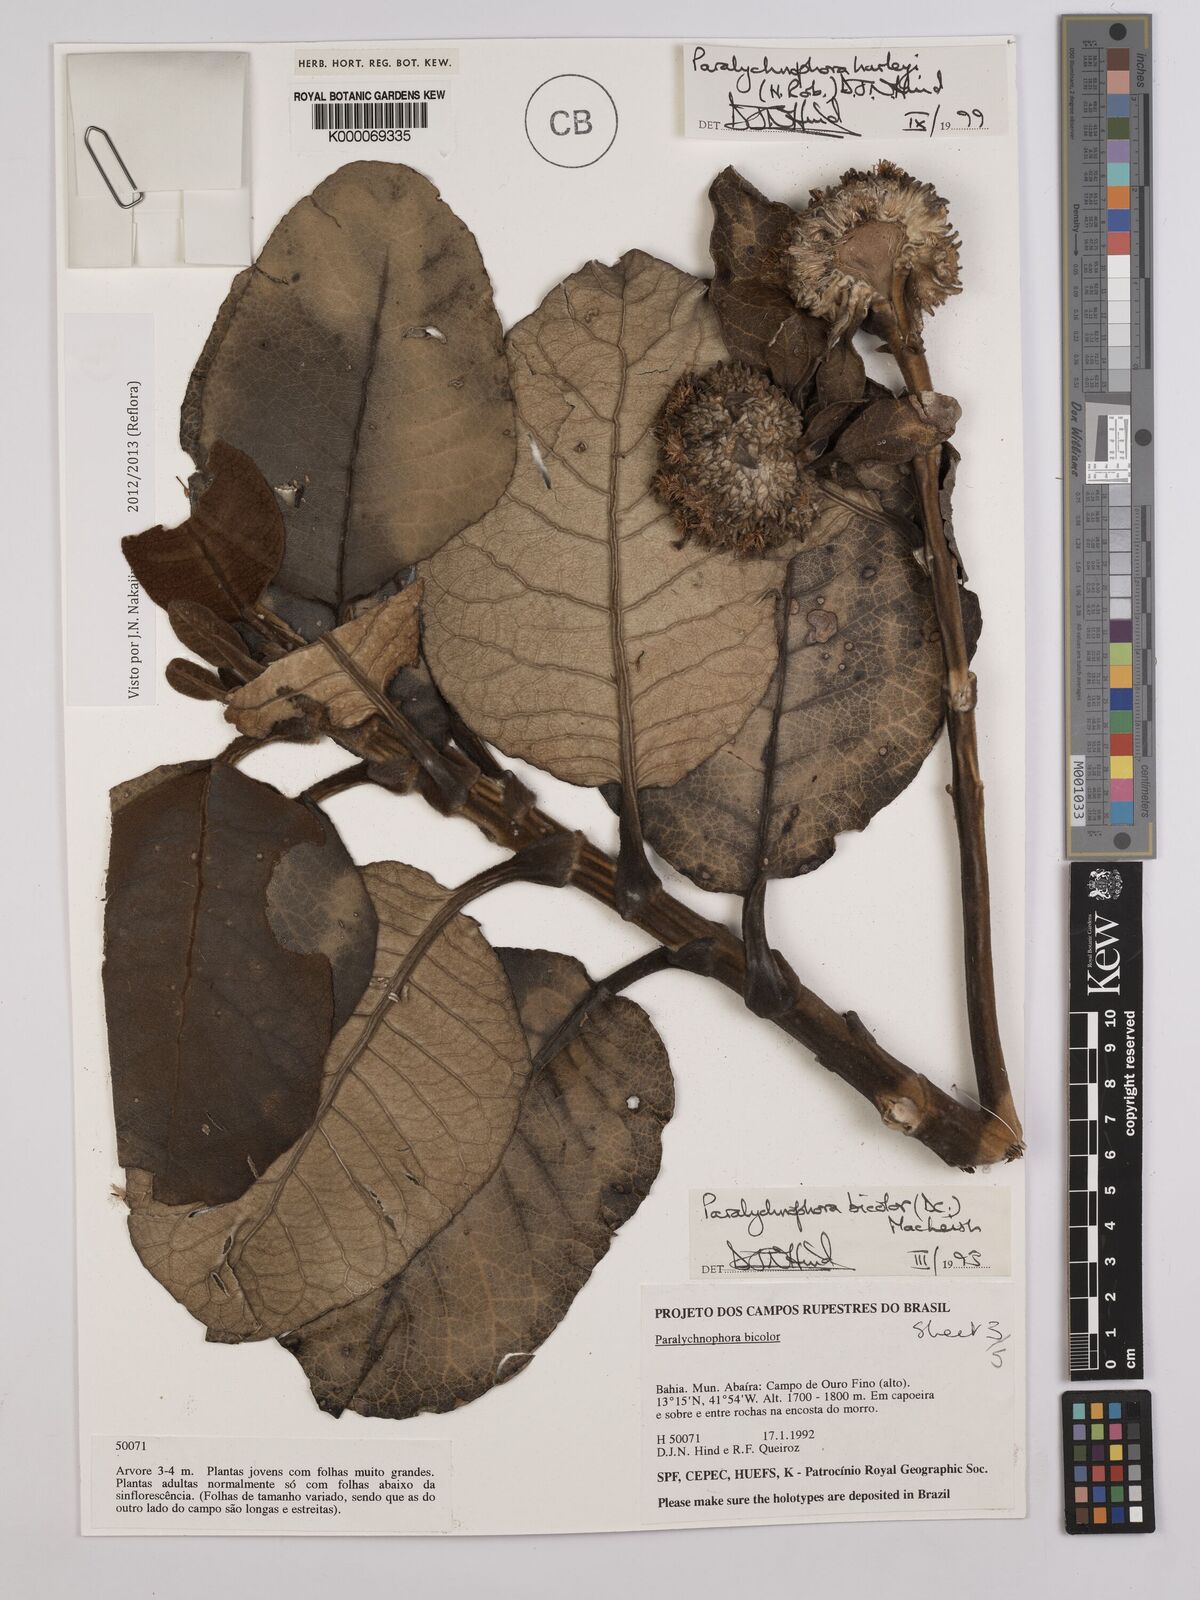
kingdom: Plantae
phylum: Tracheophyta
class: Magnoliopsida
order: Asterales
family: Asteraceae
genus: Paralychnophora
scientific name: Paralychnophora harleyi
